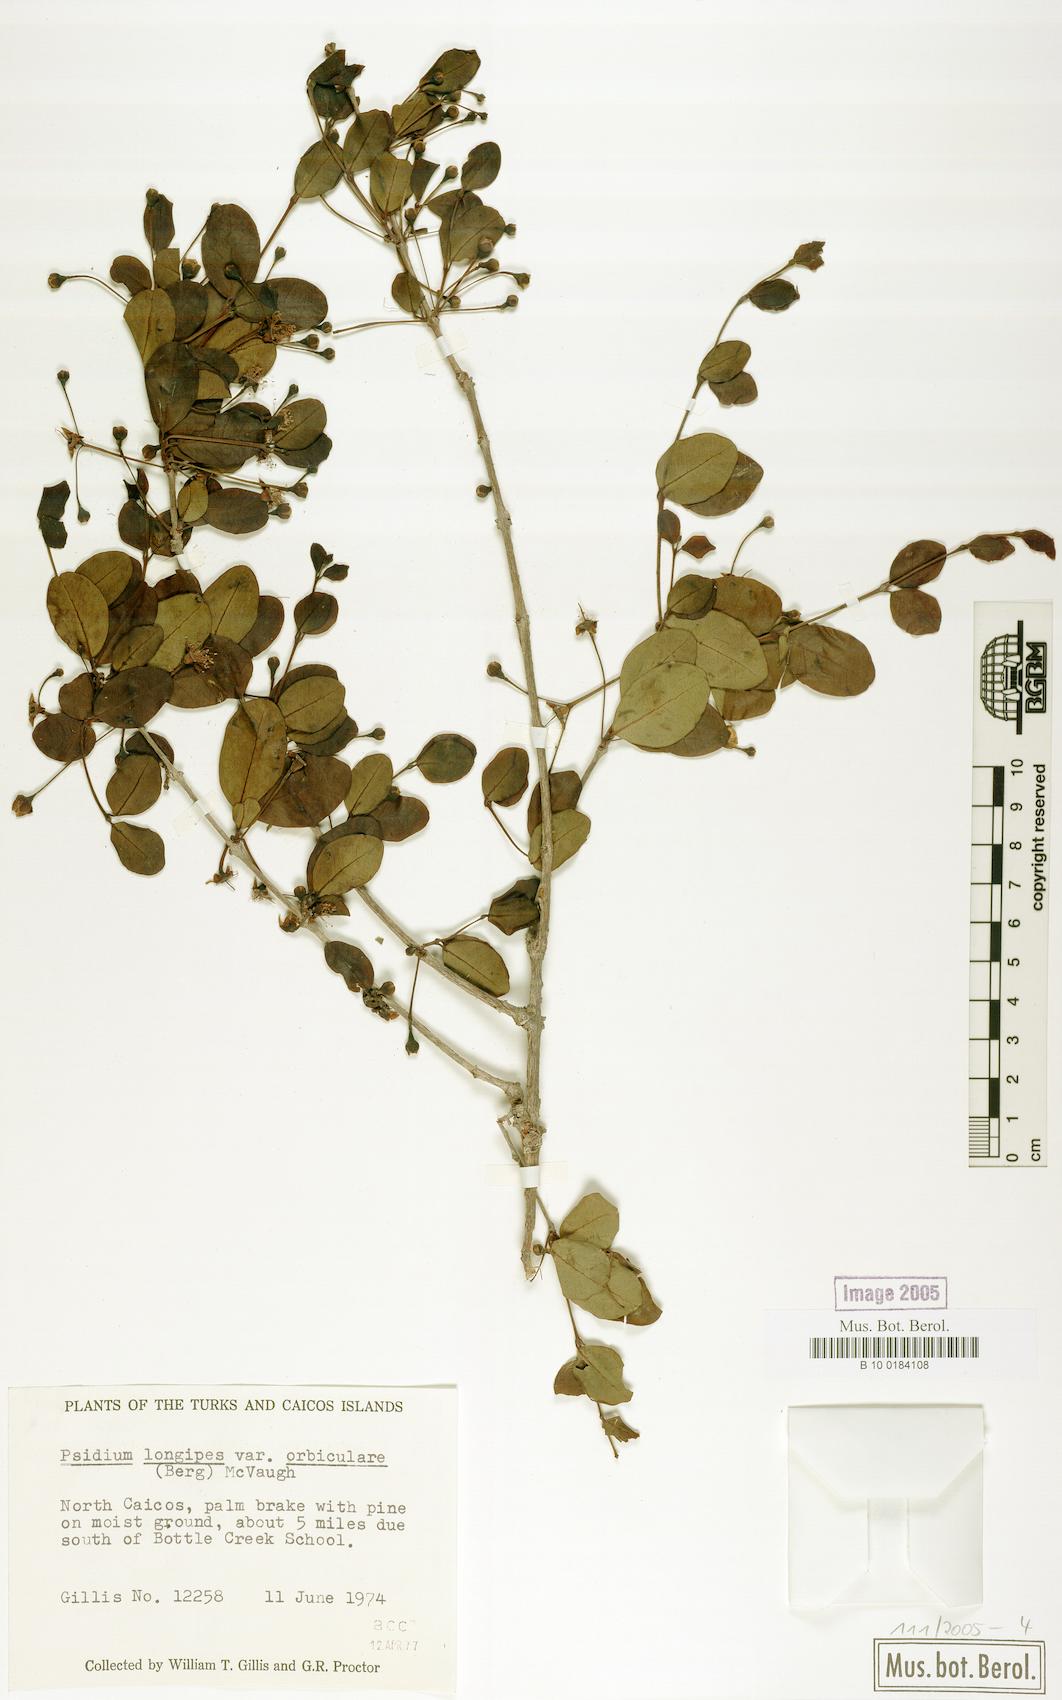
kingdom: Plantae
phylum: Tracheophyta
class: Magnoliopsida
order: Myrtales
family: Myrtaceae
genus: Mosiera
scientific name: Mosiera longipes
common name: Bahama stopper
